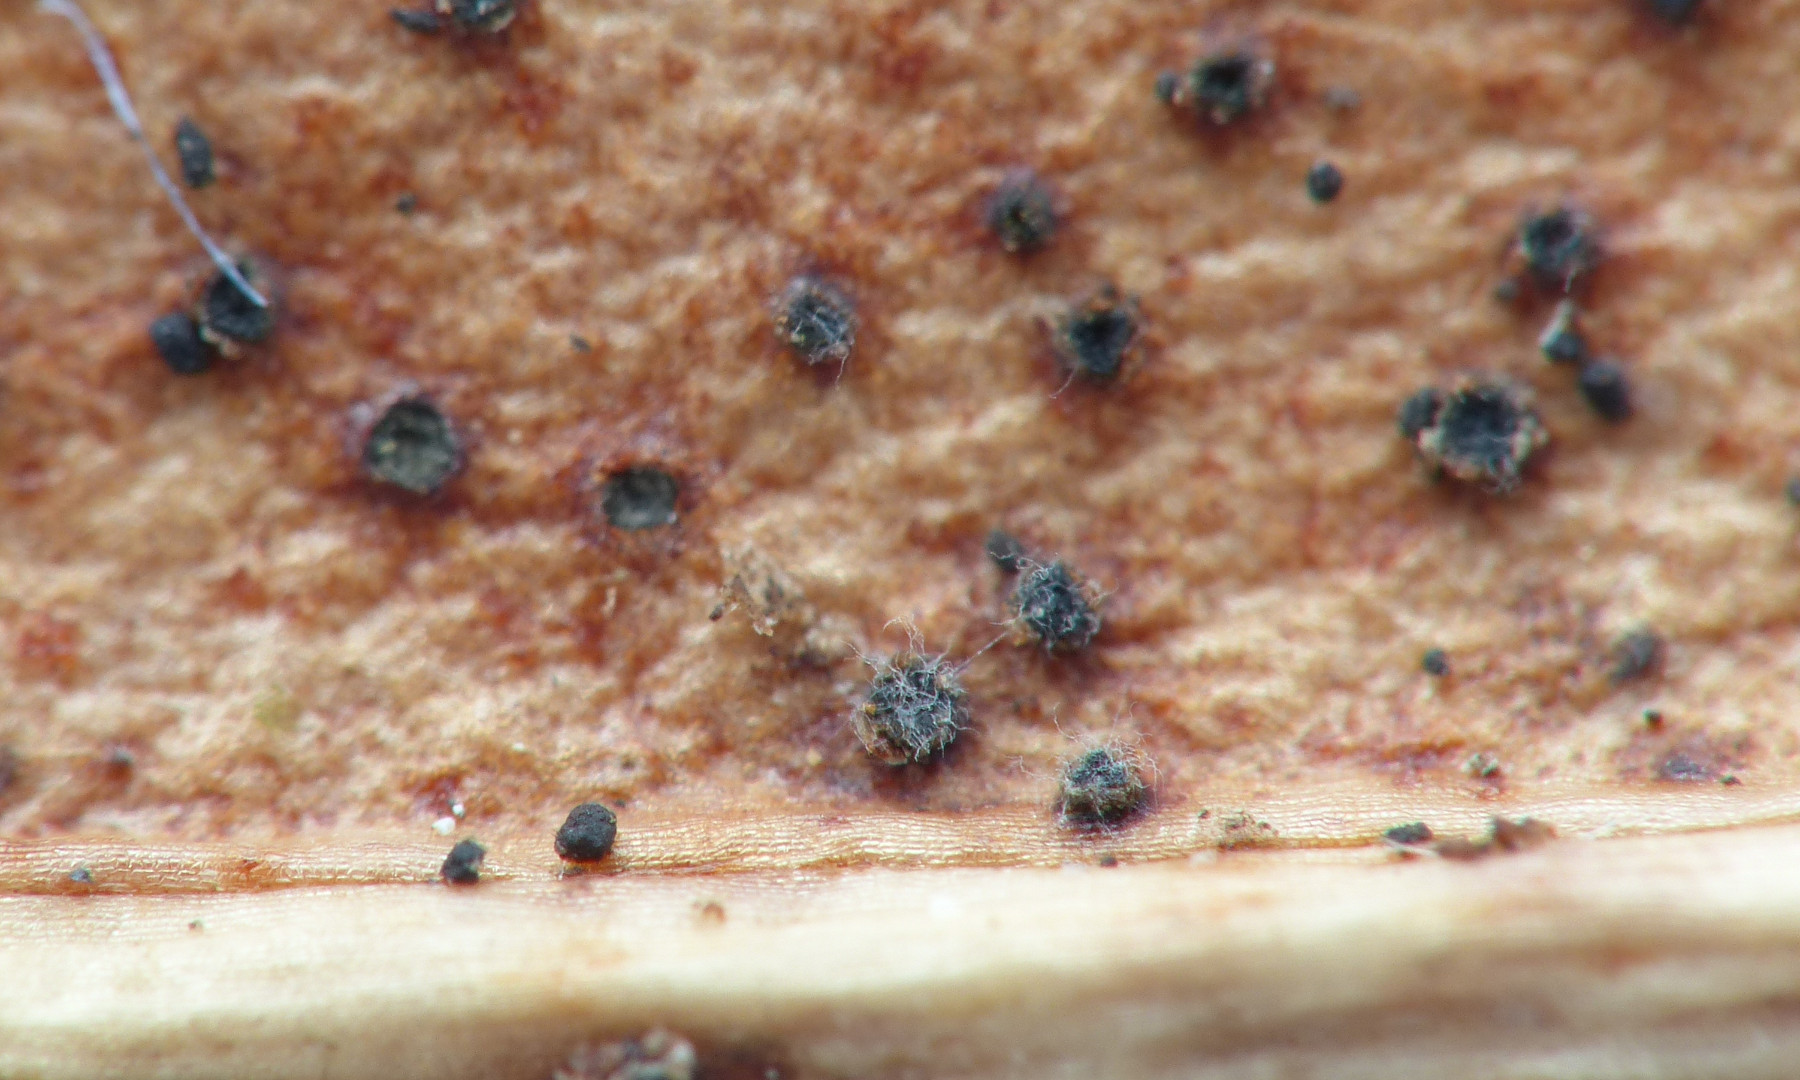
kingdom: Fungi
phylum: Ascomycota
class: Leotiomycetes
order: Helotiales
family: Cenangiaceae
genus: Trochila
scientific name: Trochila laurocerasi
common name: kirsebær-lågskive
